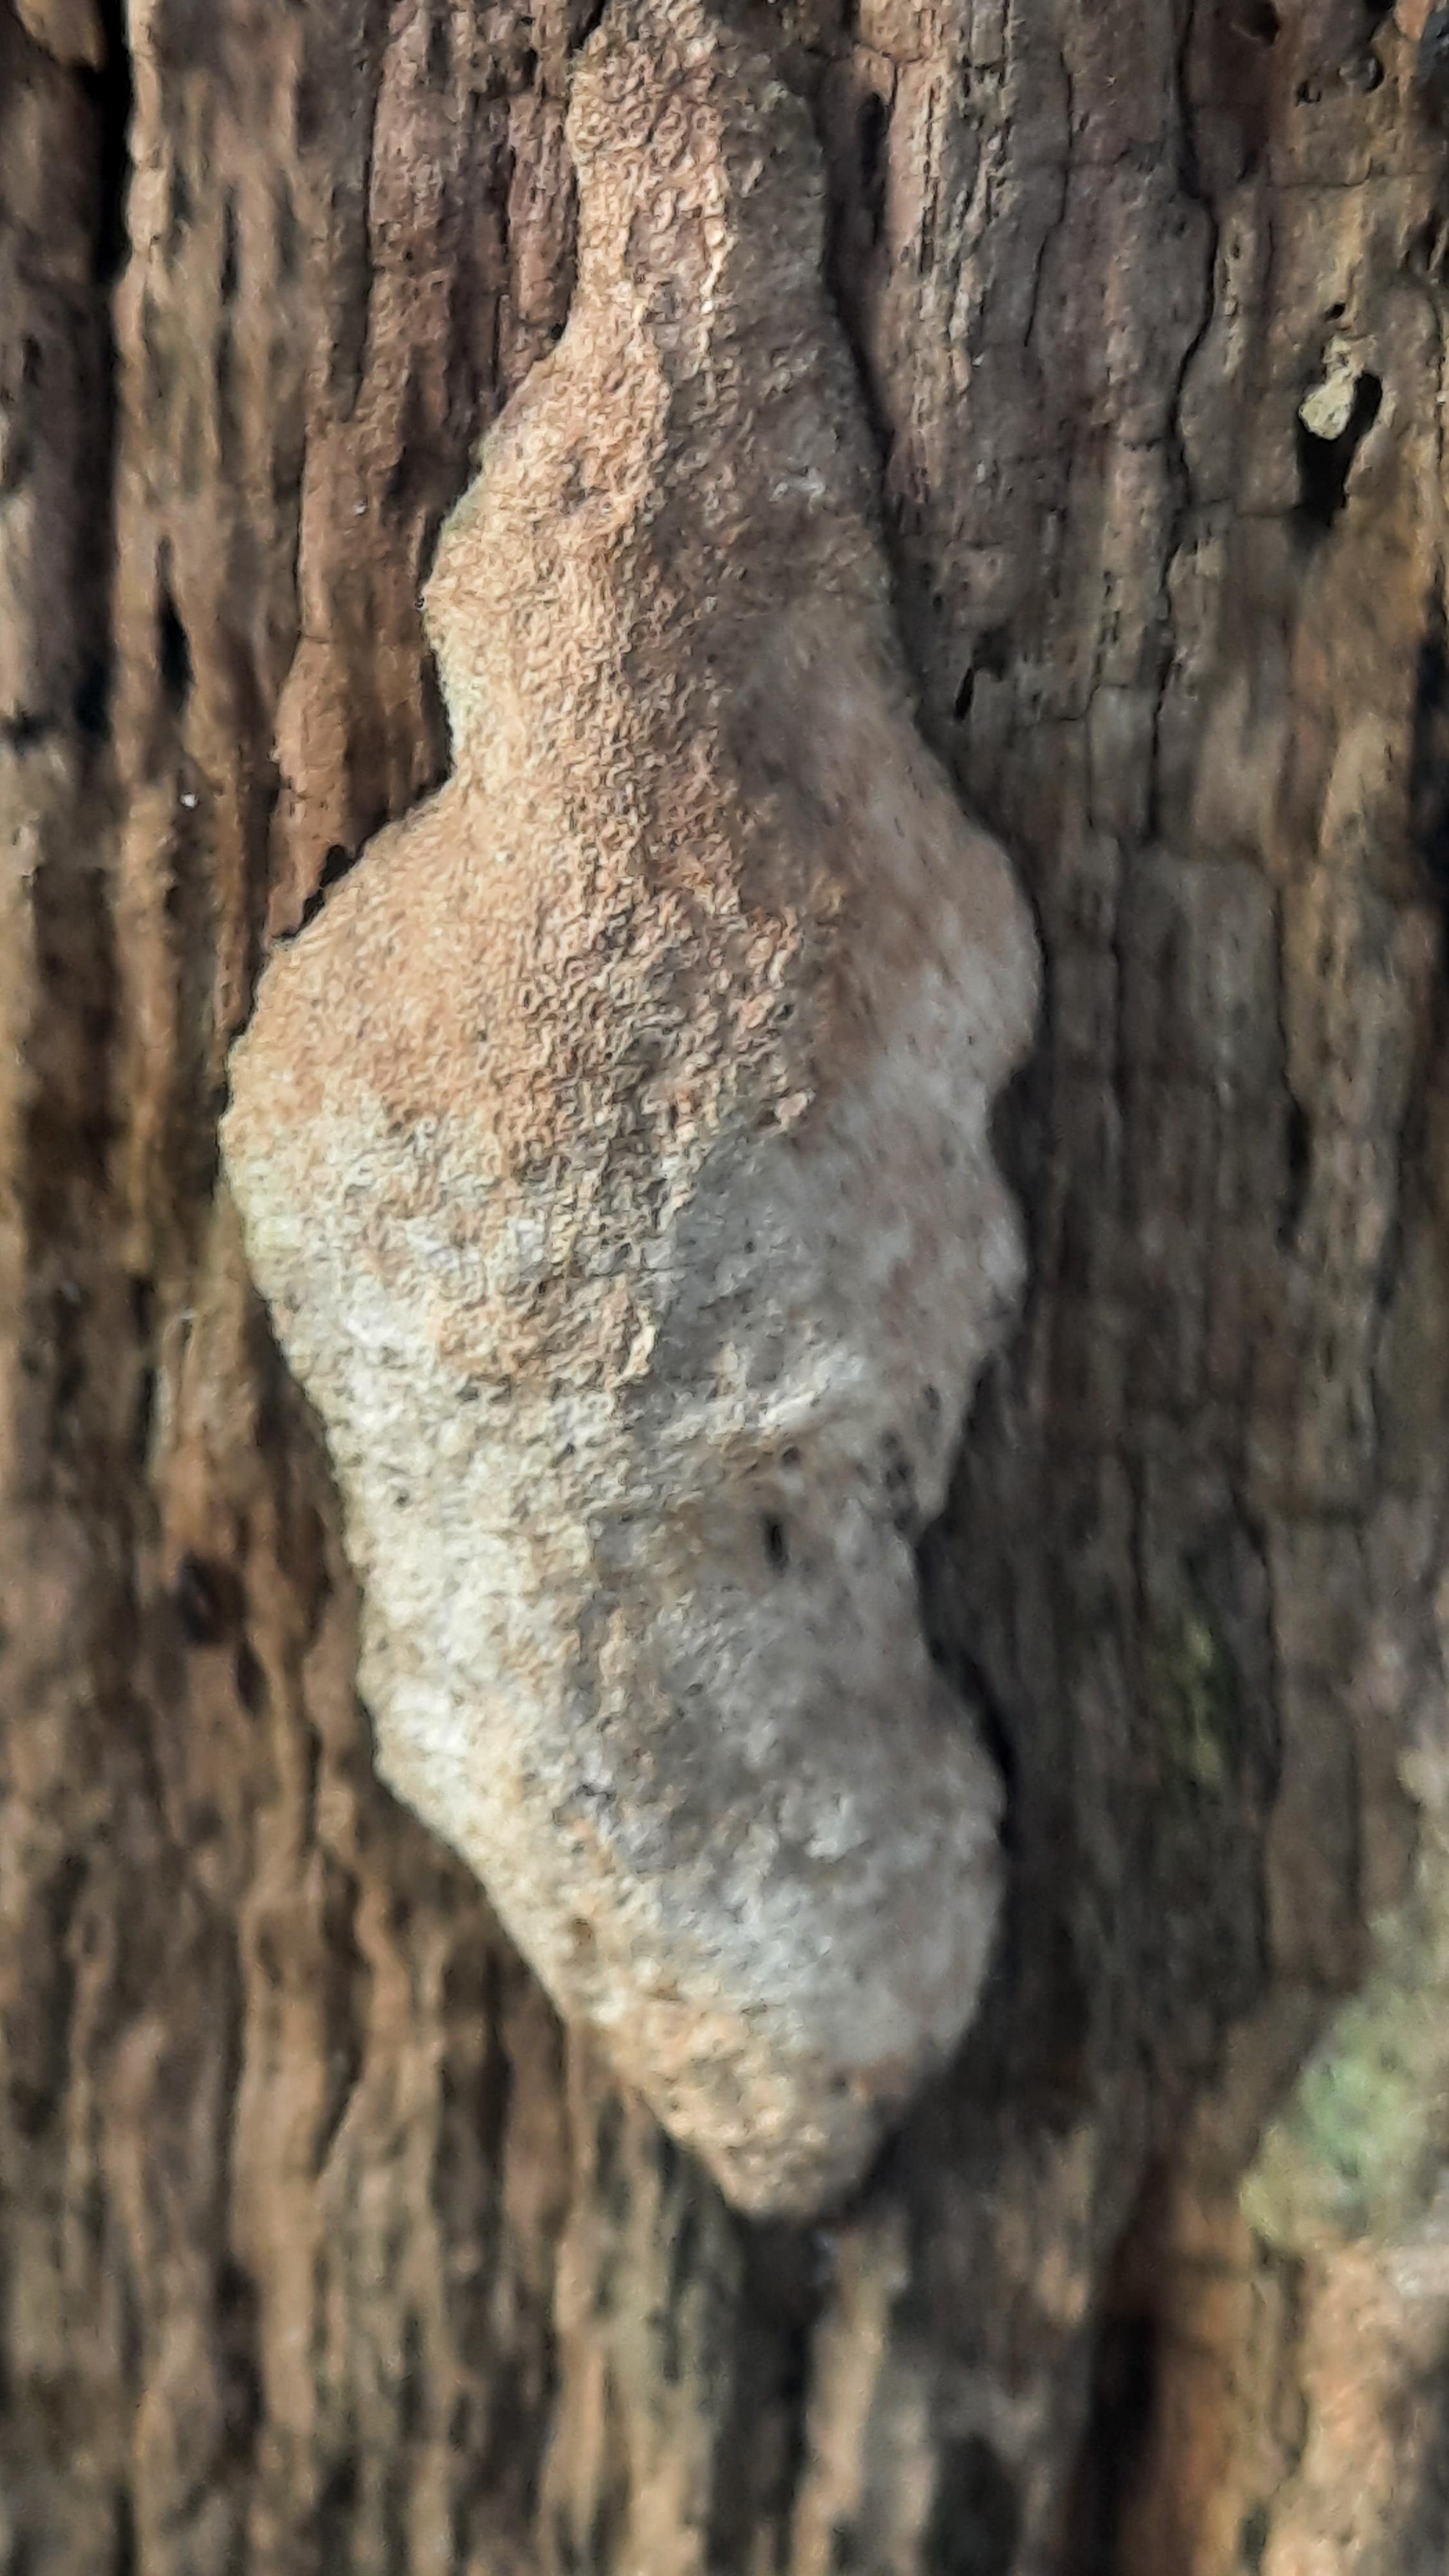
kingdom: Fungi
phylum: Basidiomycota
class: Agaricomycetes
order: Polyporales
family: Fomitopsidaceae
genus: Daedalea
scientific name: Daedalea quercina
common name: ege-labyrintsvamp
